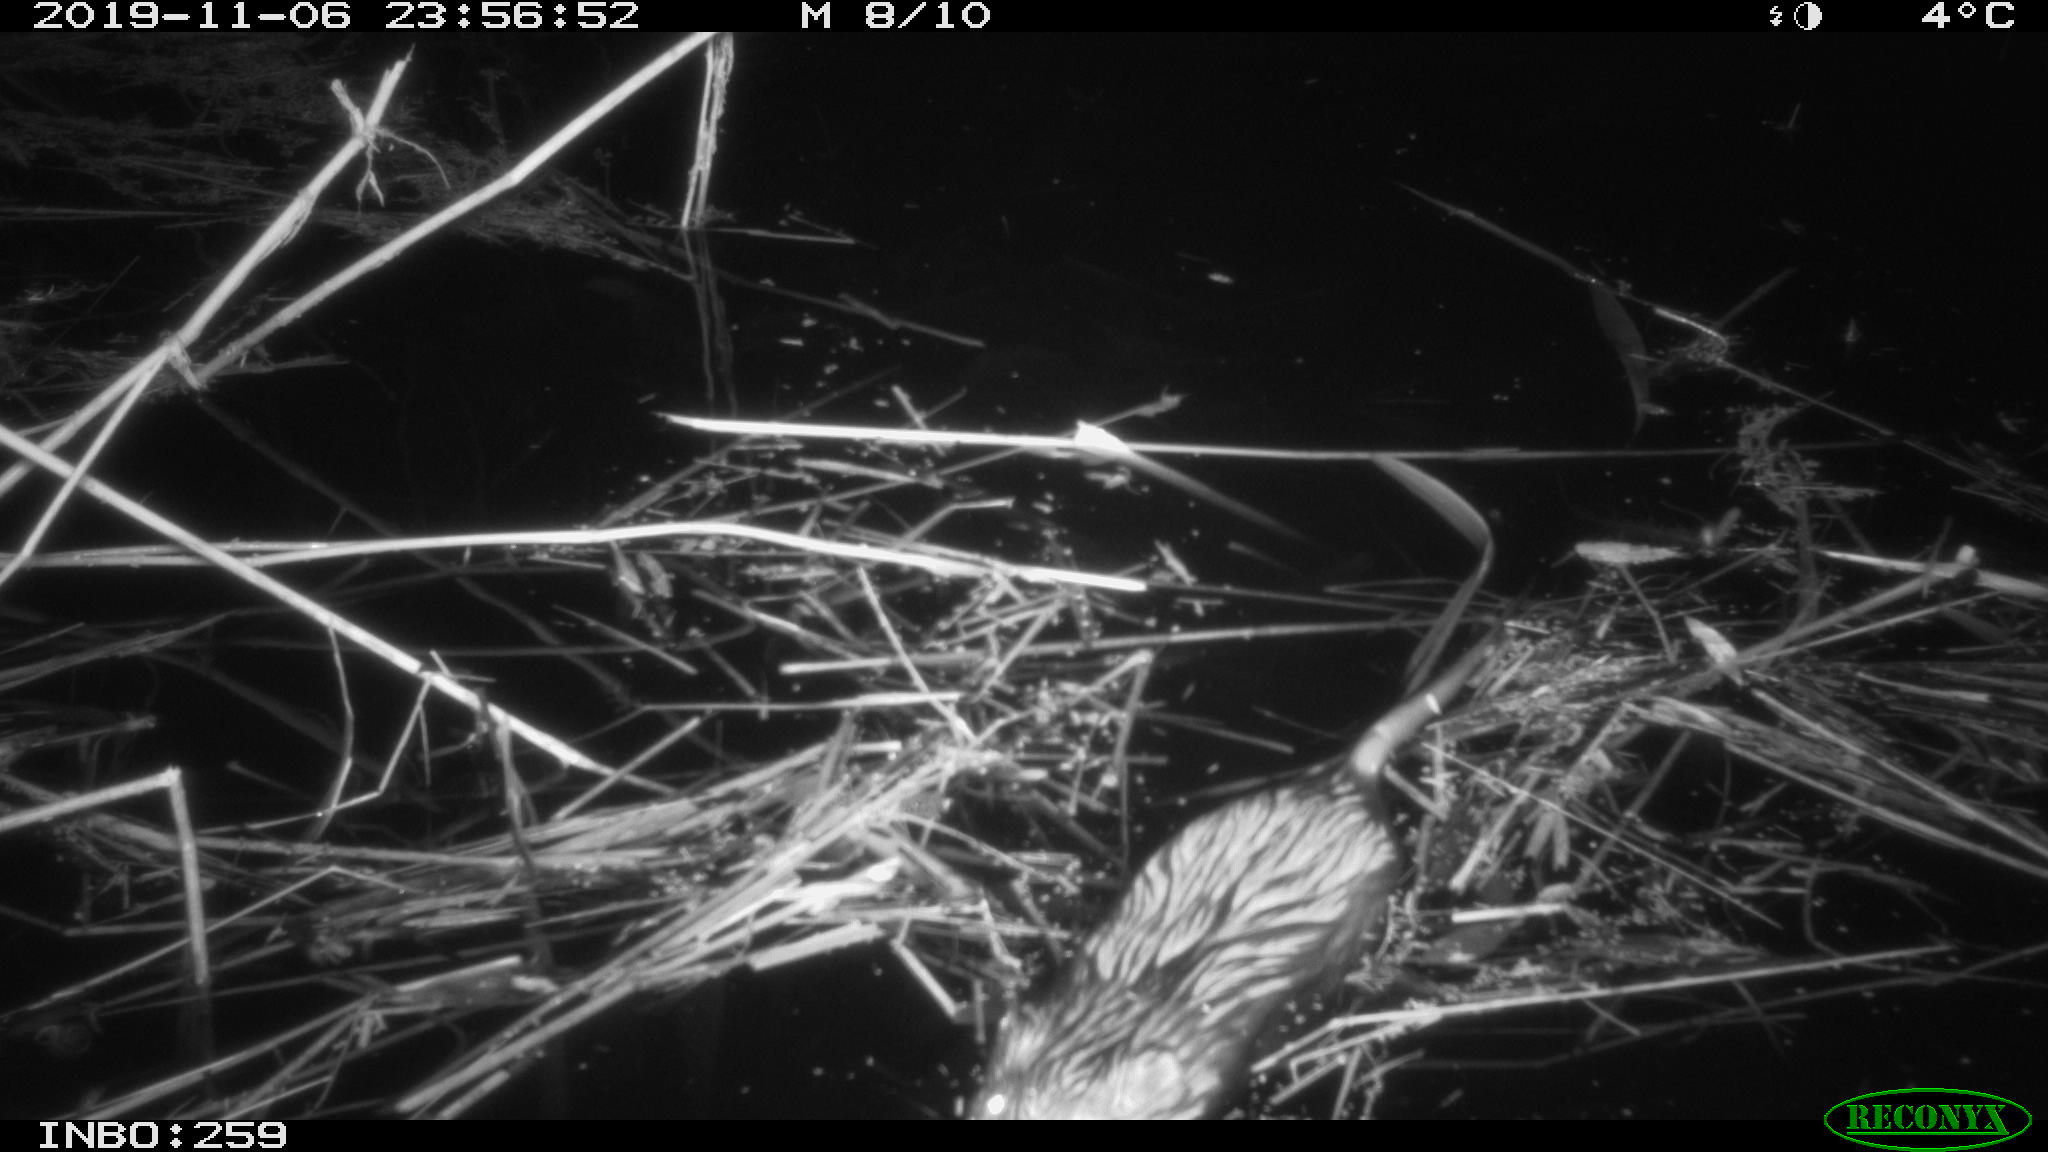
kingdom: Animalia
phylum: Chordata
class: Mammalia
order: Rodentia
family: Cricetidae
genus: Ondatra
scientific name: Ondatra zibethicus
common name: Muskrat
